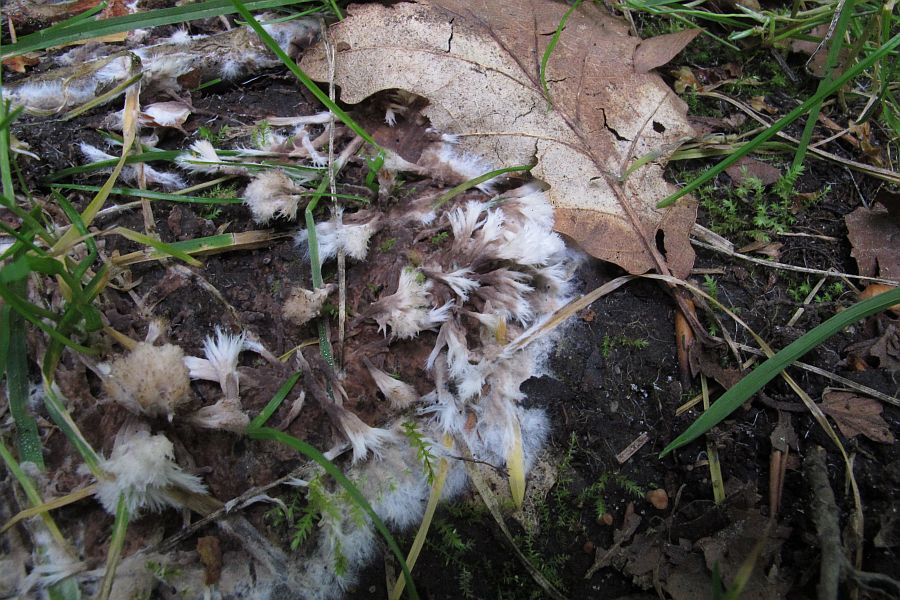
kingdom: Fungi
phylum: Basidiomycota
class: Agaricomycetes
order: Thelephorales
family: Thelephoraceae
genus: Thelephora
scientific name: Thelephora penicillata
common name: fladtrådt frynsesvamp
